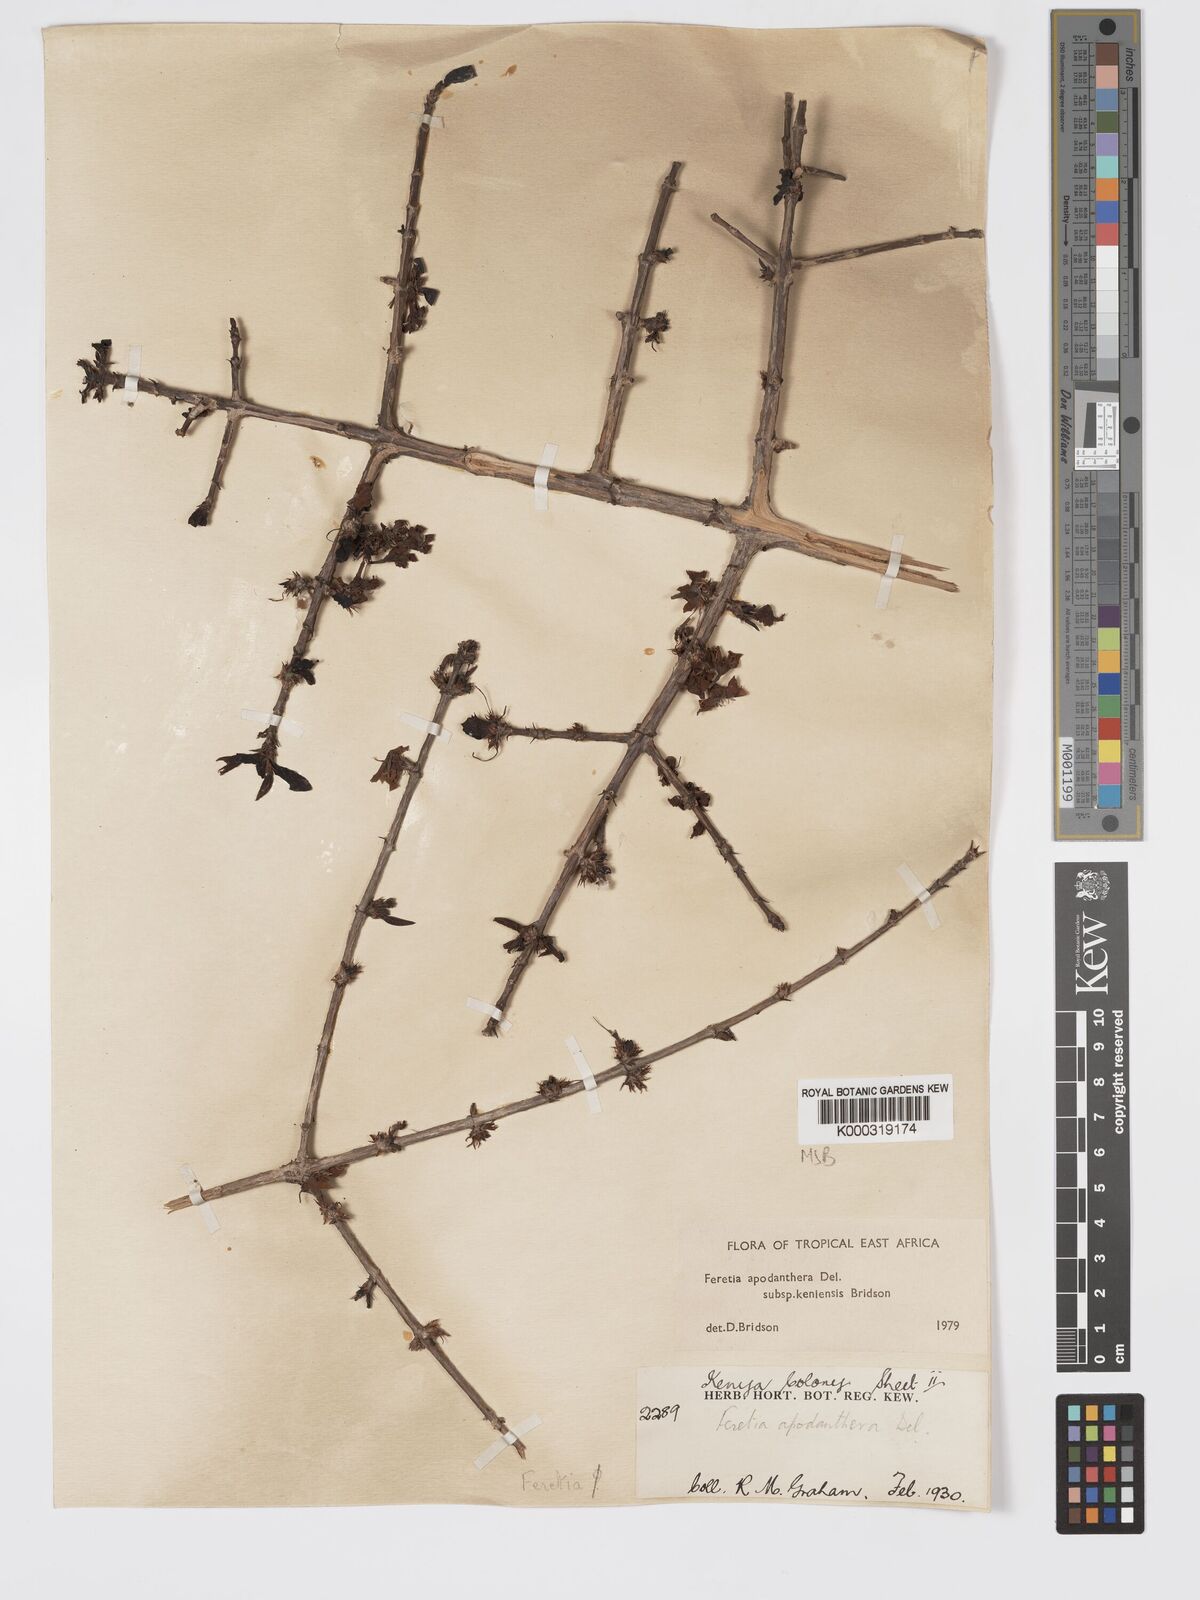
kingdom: Plantae
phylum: Tracheophyta
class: Magnoliopsida
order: Gentianales
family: Rubiaceae
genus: Feretia
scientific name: Feretia apodanthera
